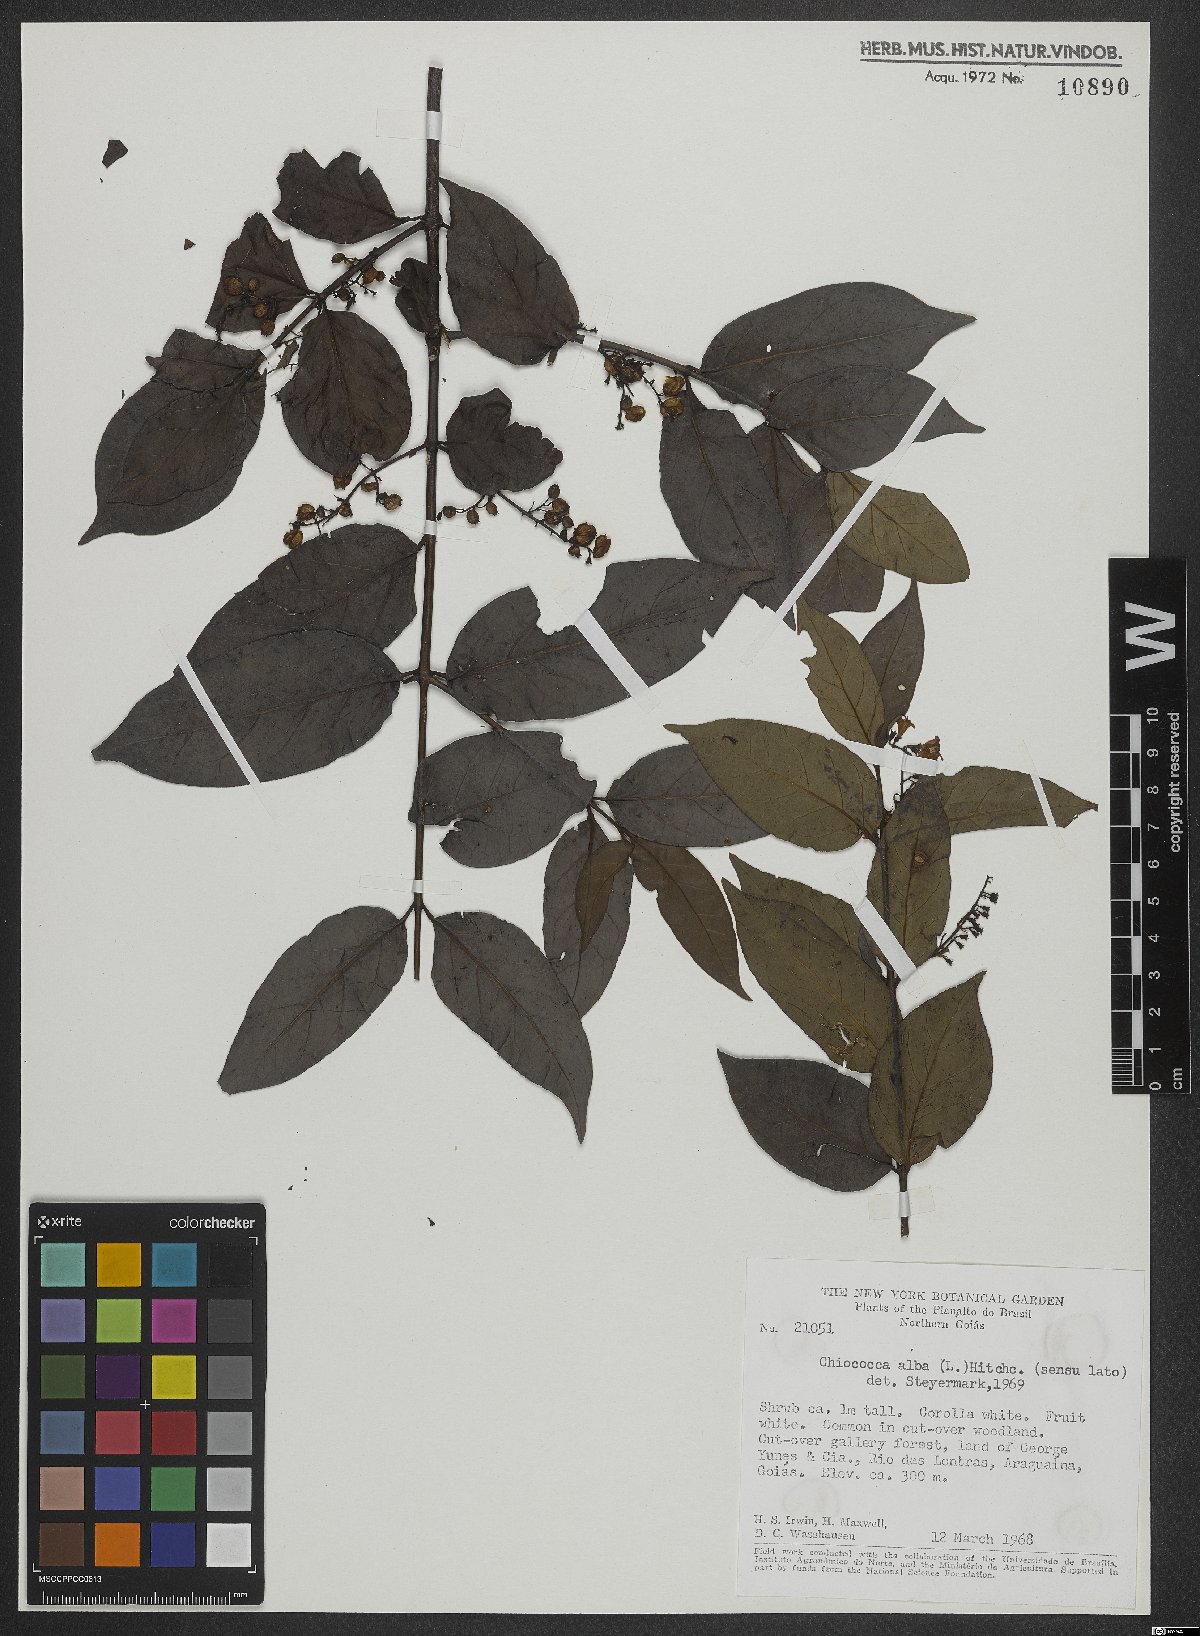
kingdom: Plantae
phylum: Tracheophyta
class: Magnoliopsida
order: Gentianales
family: Rubiaceae
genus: Chiococca
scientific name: Chiococca alba
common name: Snowberry
